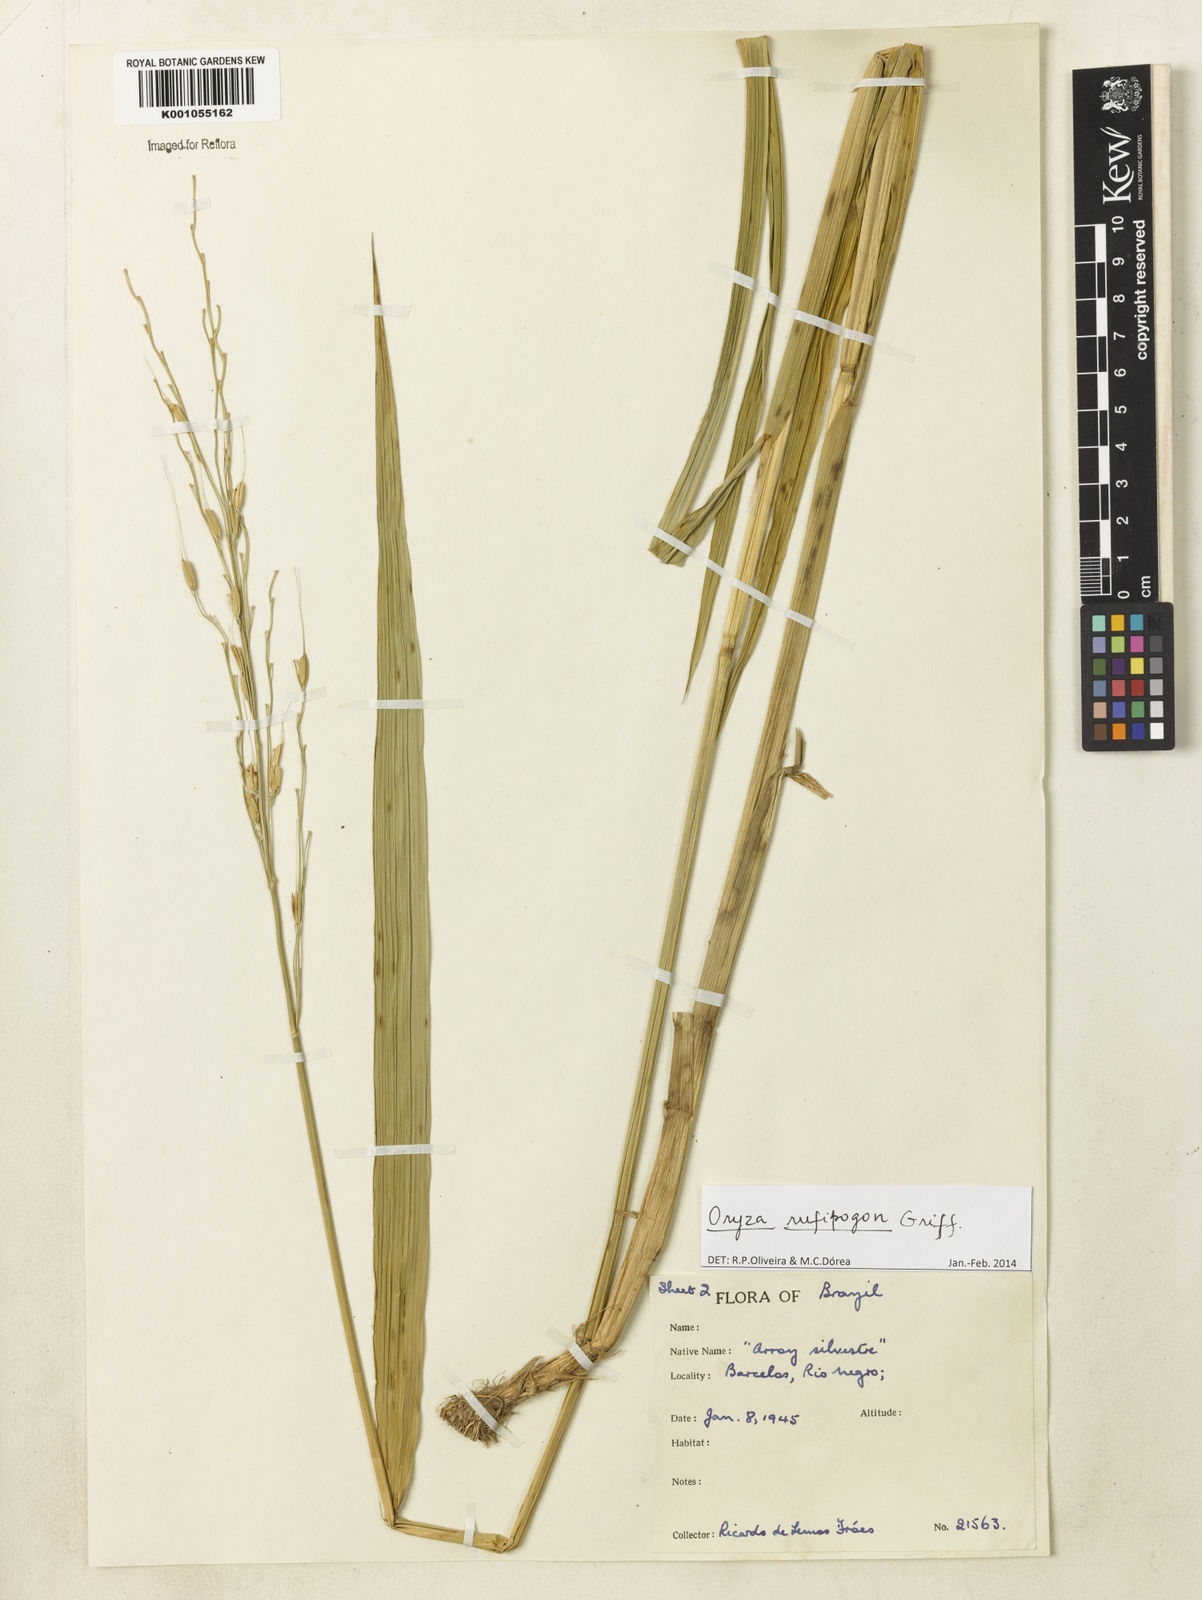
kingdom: Plantae
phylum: Tracheophyta
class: Liliopsida
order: Poales
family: Poaceae
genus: Oryza
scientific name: Oryza rufipogon
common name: Red rice
